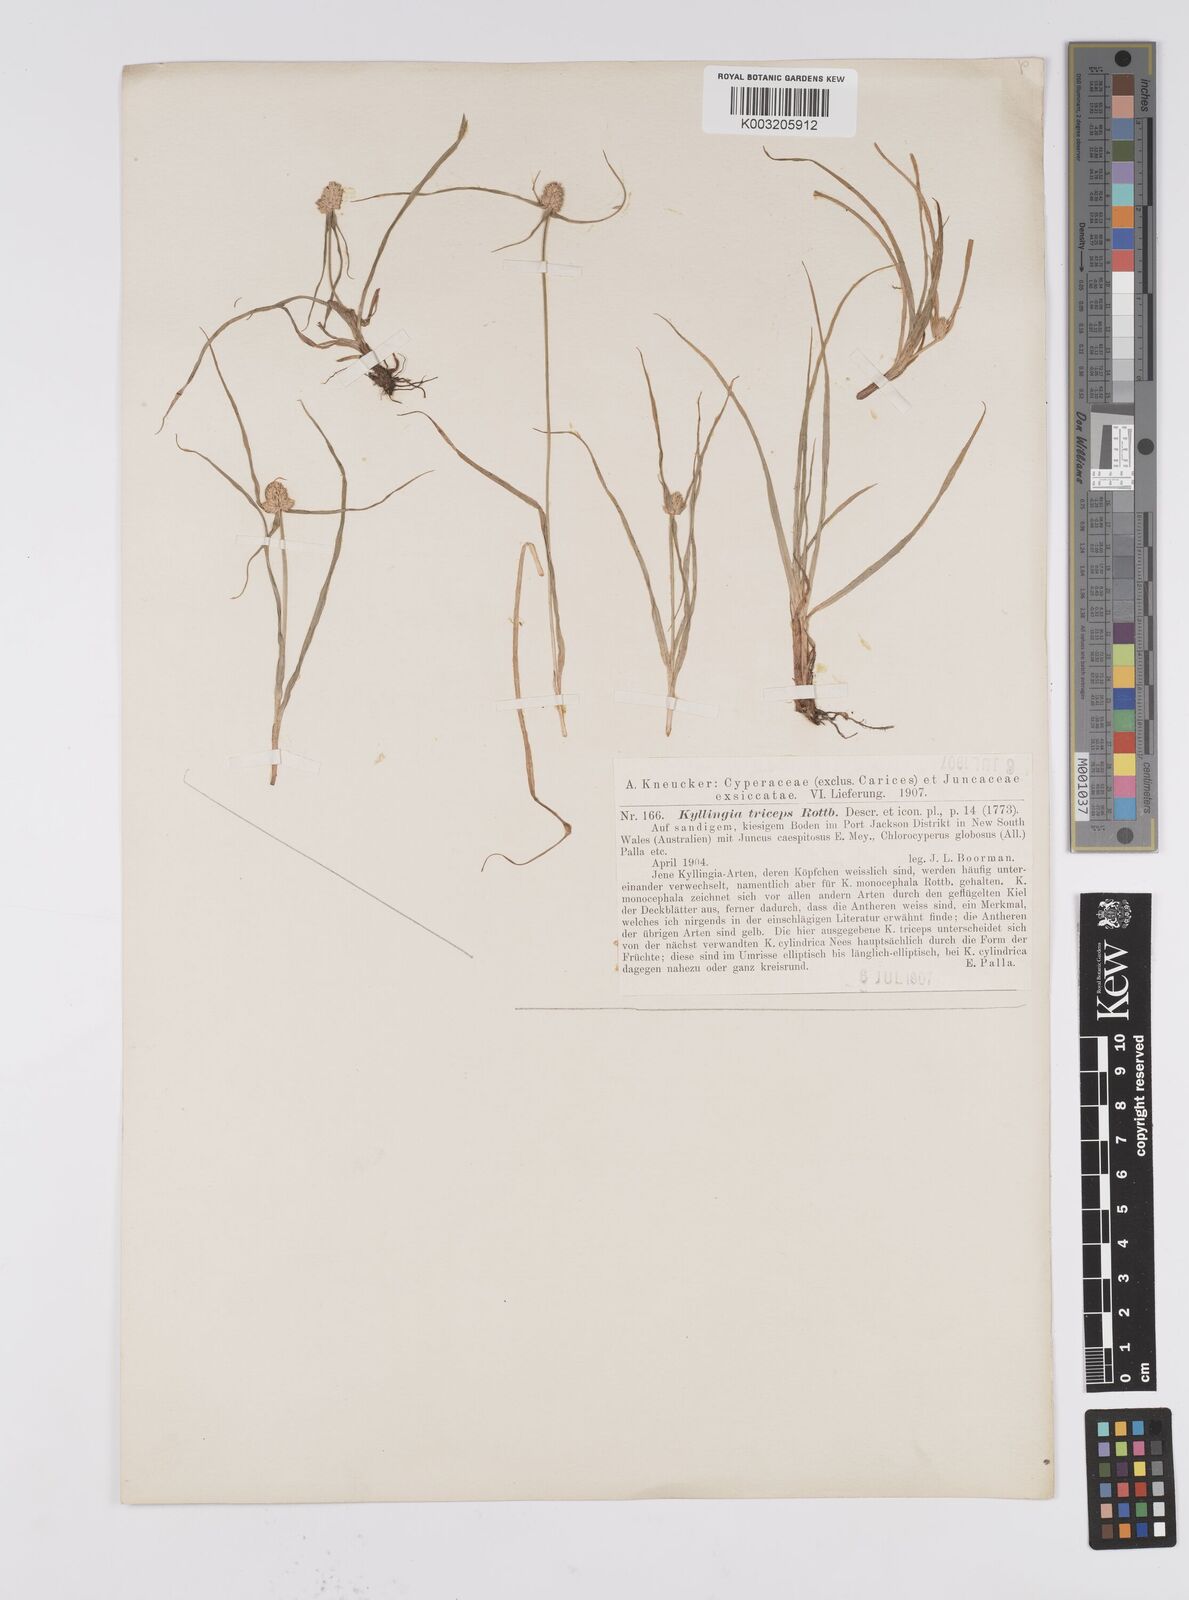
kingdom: Plantae
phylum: Tracheophyta
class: Liliopsida
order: Poales
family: Cyperaceae
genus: Cyperus
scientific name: Cyperus
